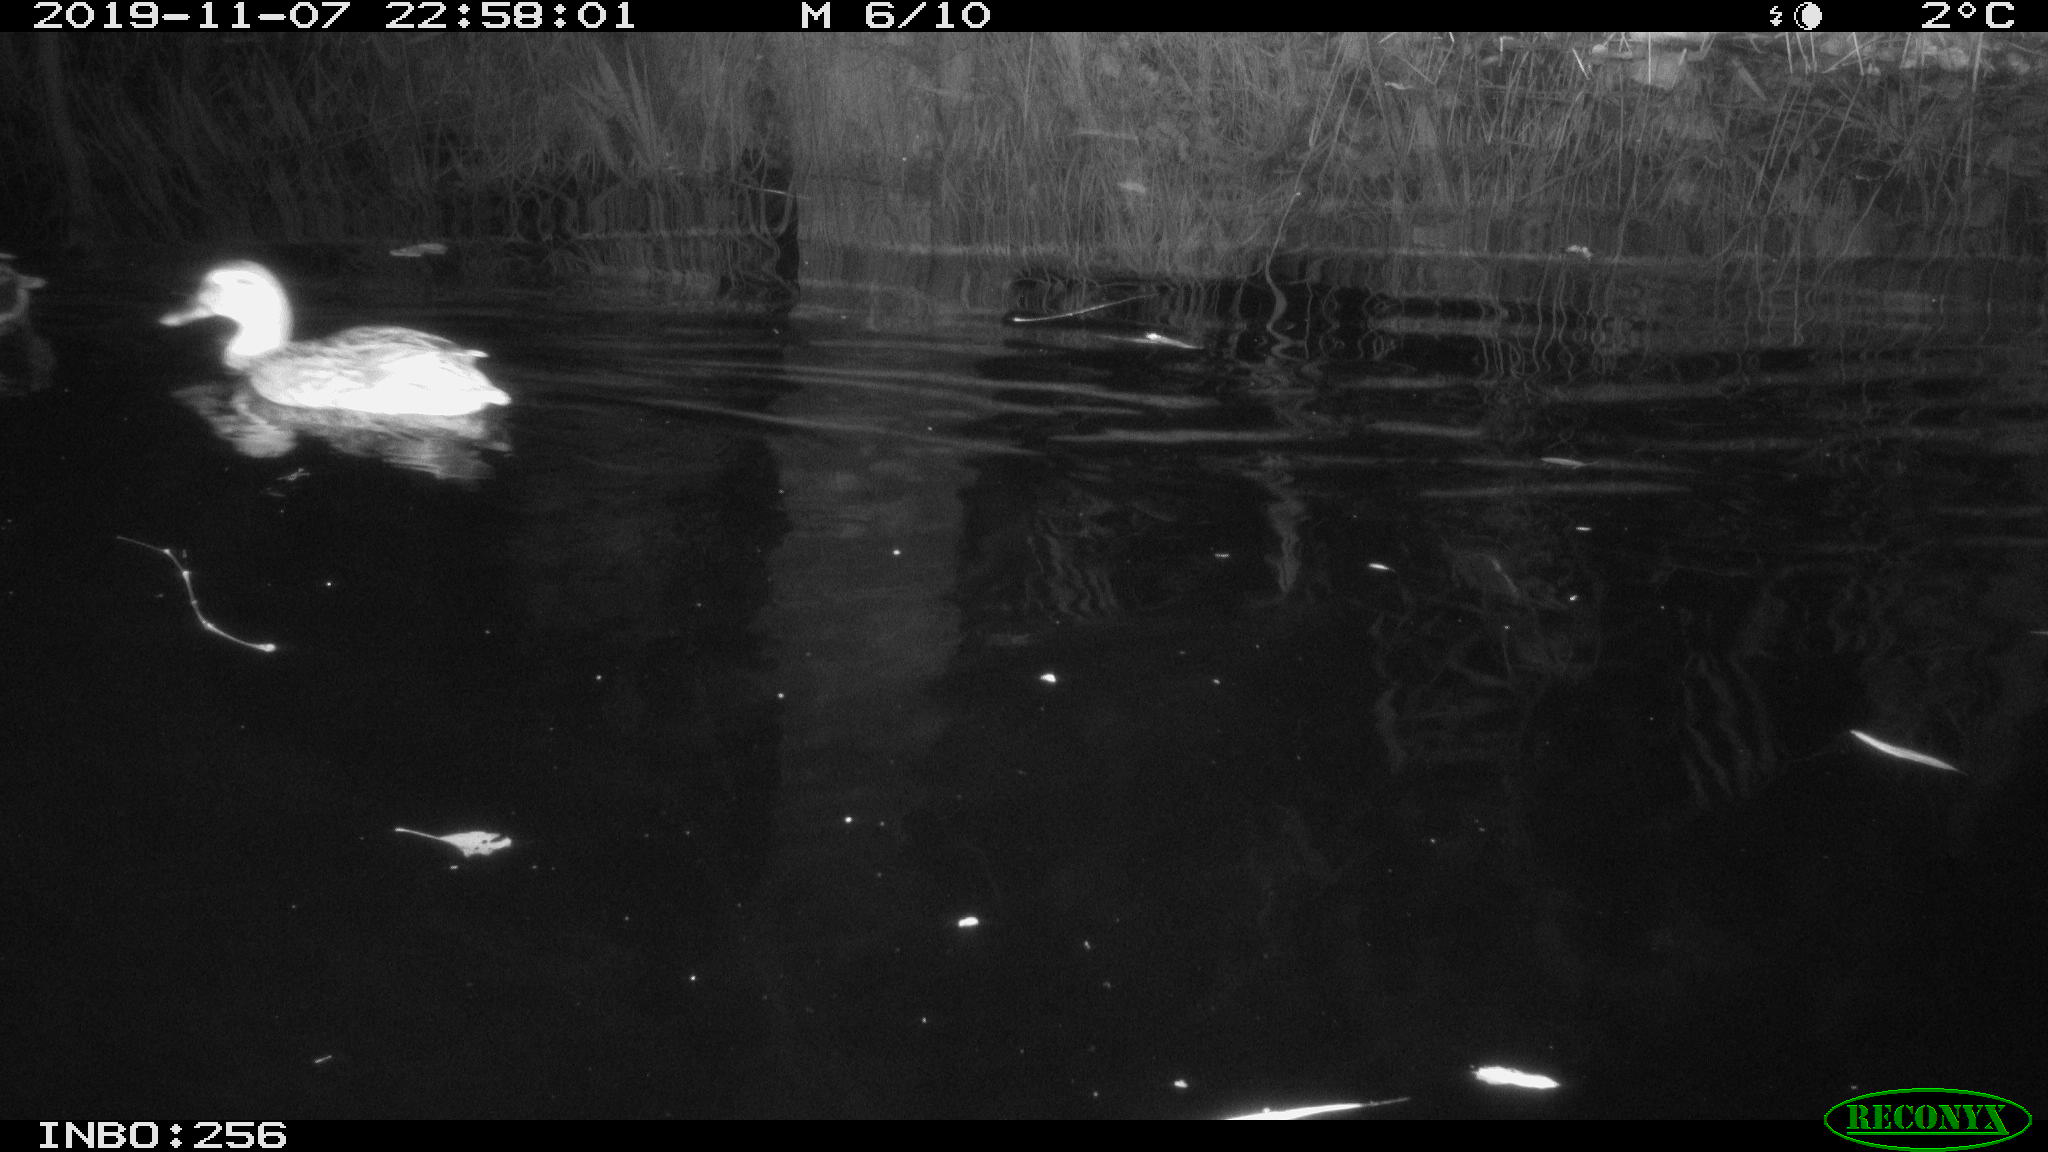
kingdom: Animalia
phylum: Chordata
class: Aves
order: Anseriformes
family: Anatidae
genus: Anas
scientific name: Anas platyrhynchos
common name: Mallard
